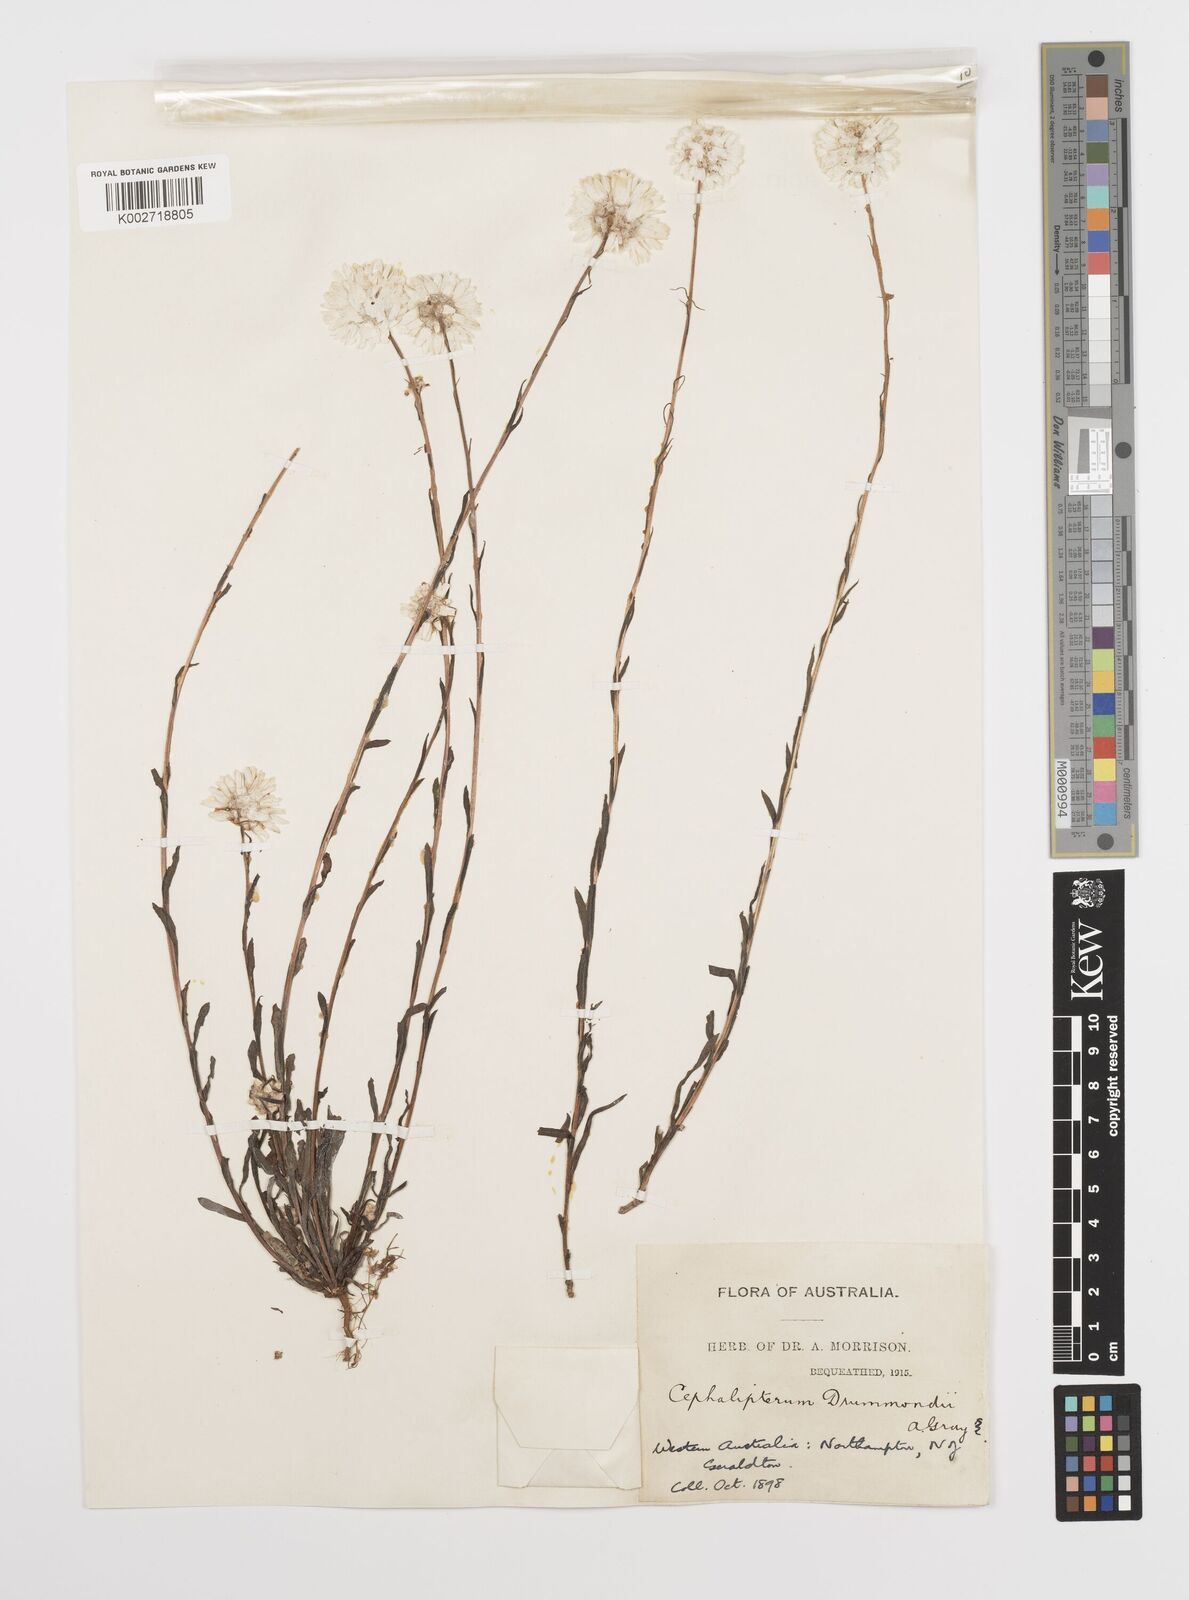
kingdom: Plantae
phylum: Tracheophyta
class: Magnoliopsida
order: Asterales
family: Asteraceae
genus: Cephalipterum
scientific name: Cephalipterum drummondii
